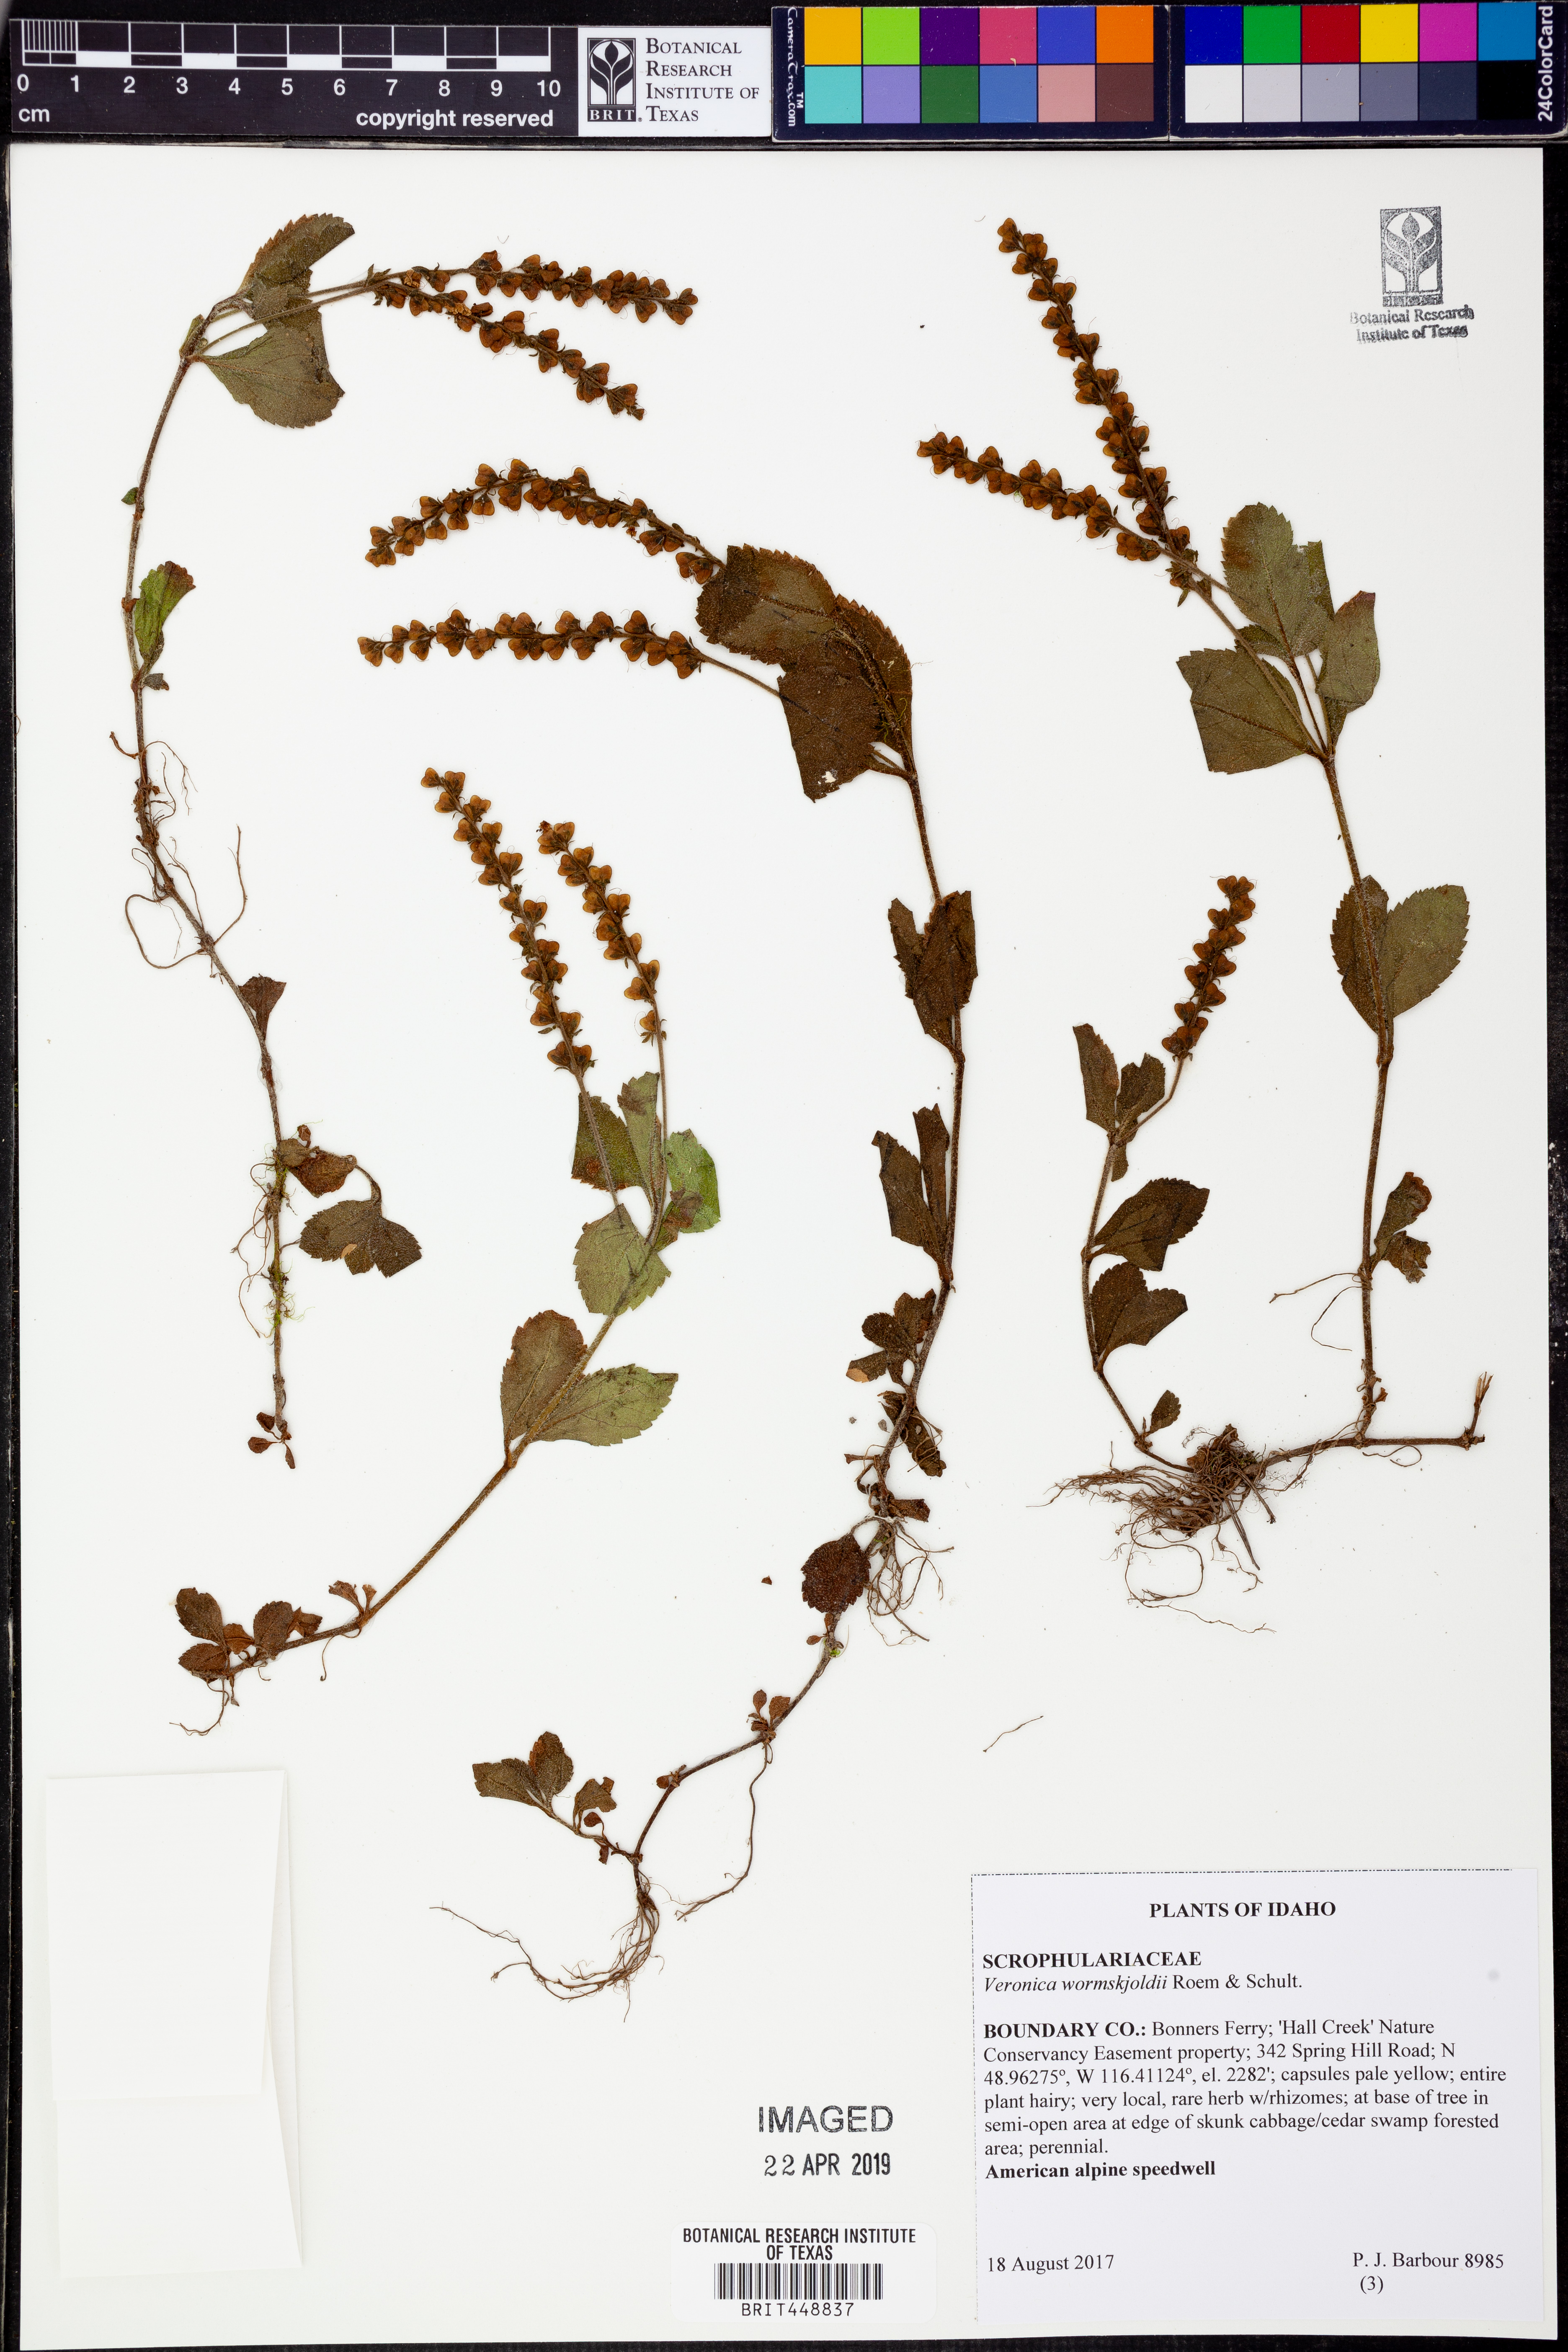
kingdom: Plantae
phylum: Tracheophyta
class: Magnoliopsida
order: Lamiales
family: Plantaginaceae
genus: Veronica
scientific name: Veronica wormskjoldii
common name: American alpine speedwell
